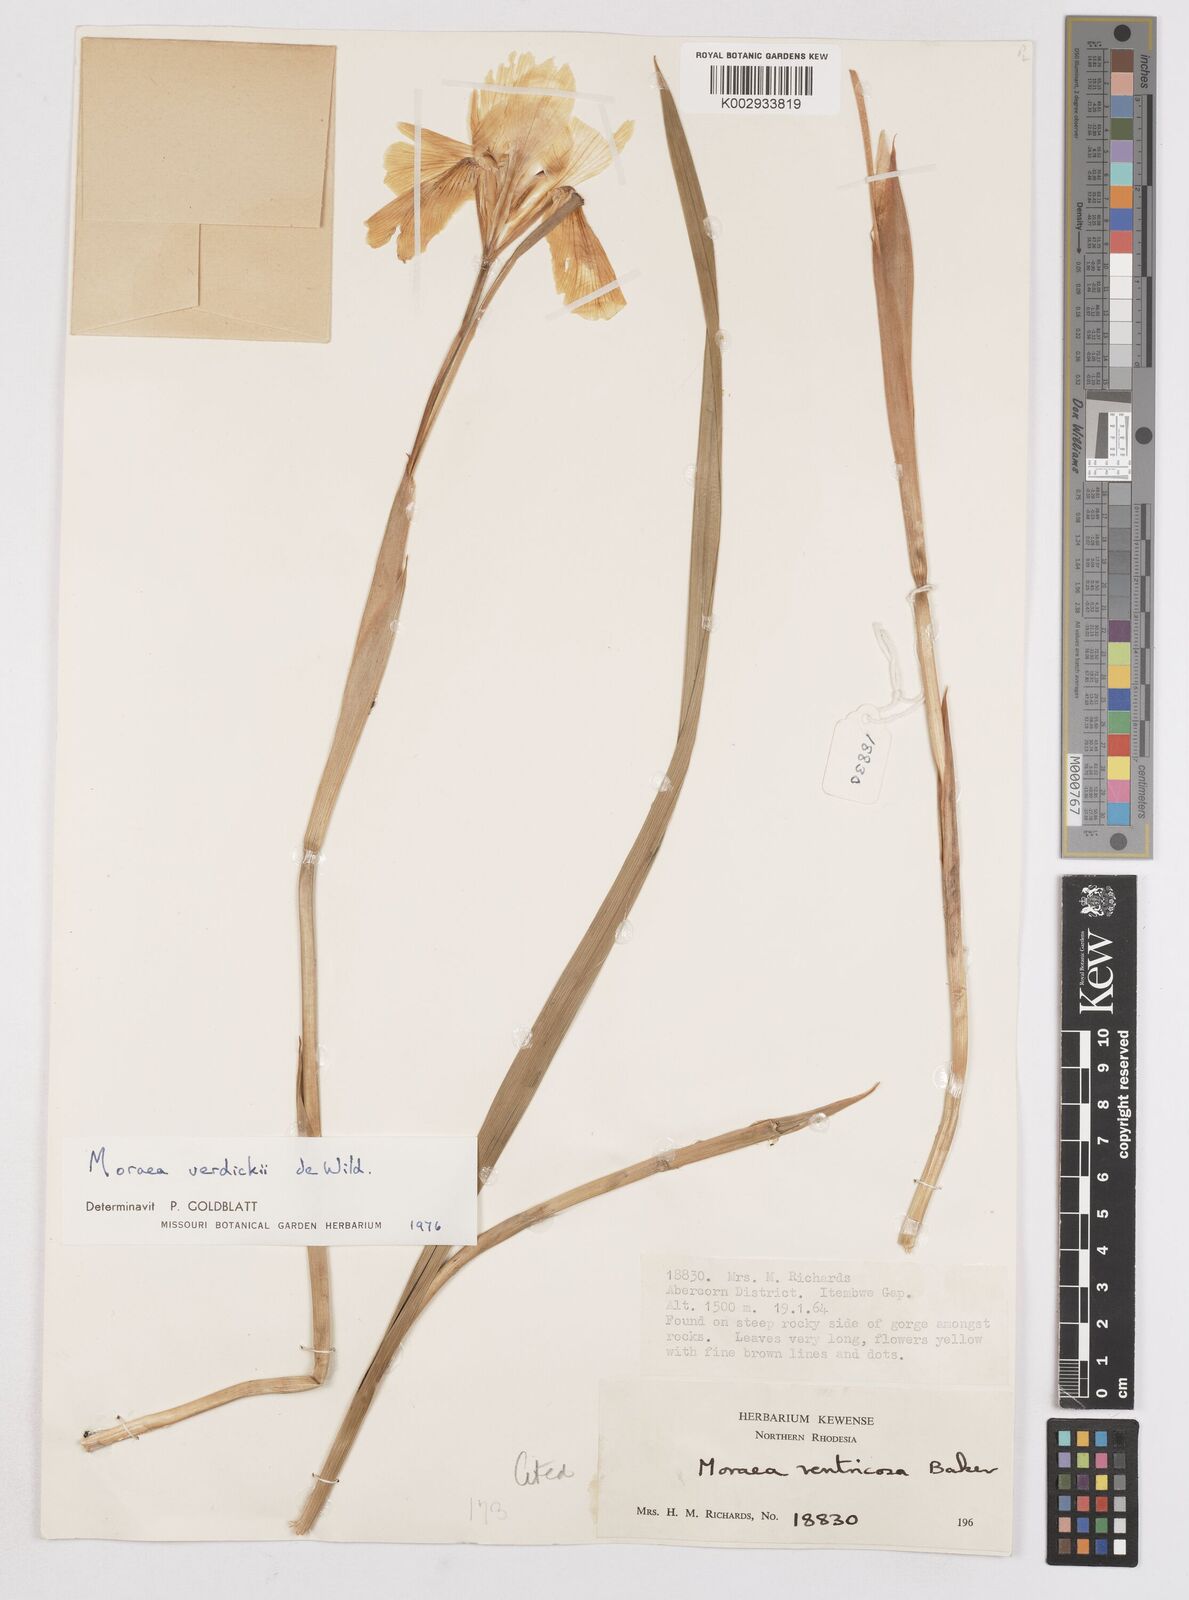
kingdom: Plantae
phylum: Tracheophyta
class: Liliopsida
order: Asparagales
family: Iridaceae
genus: Moraea
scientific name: Moraea verdickii
